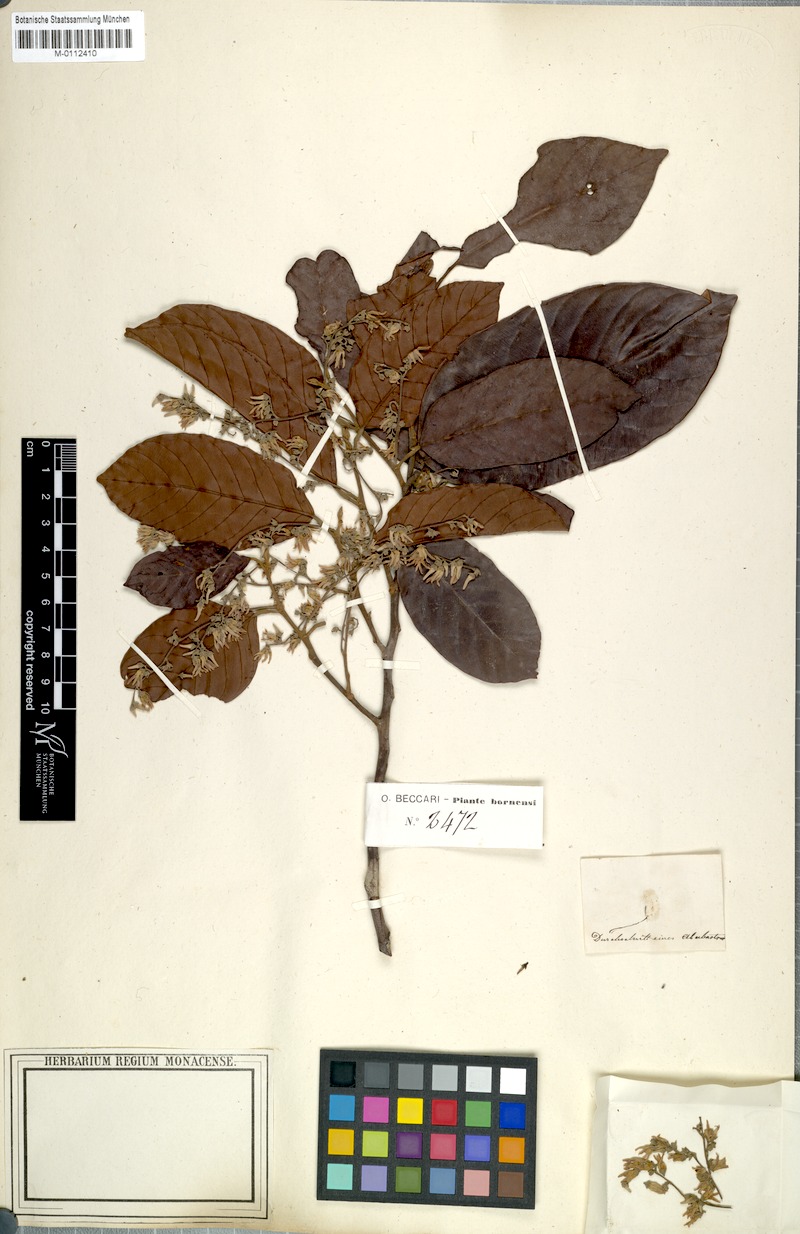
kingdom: Plantae
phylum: Tracheophyta
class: Magnoliopsida
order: Malvales
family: Dipterocarpaceae
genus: Shorea
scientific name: Shorea havilandii
